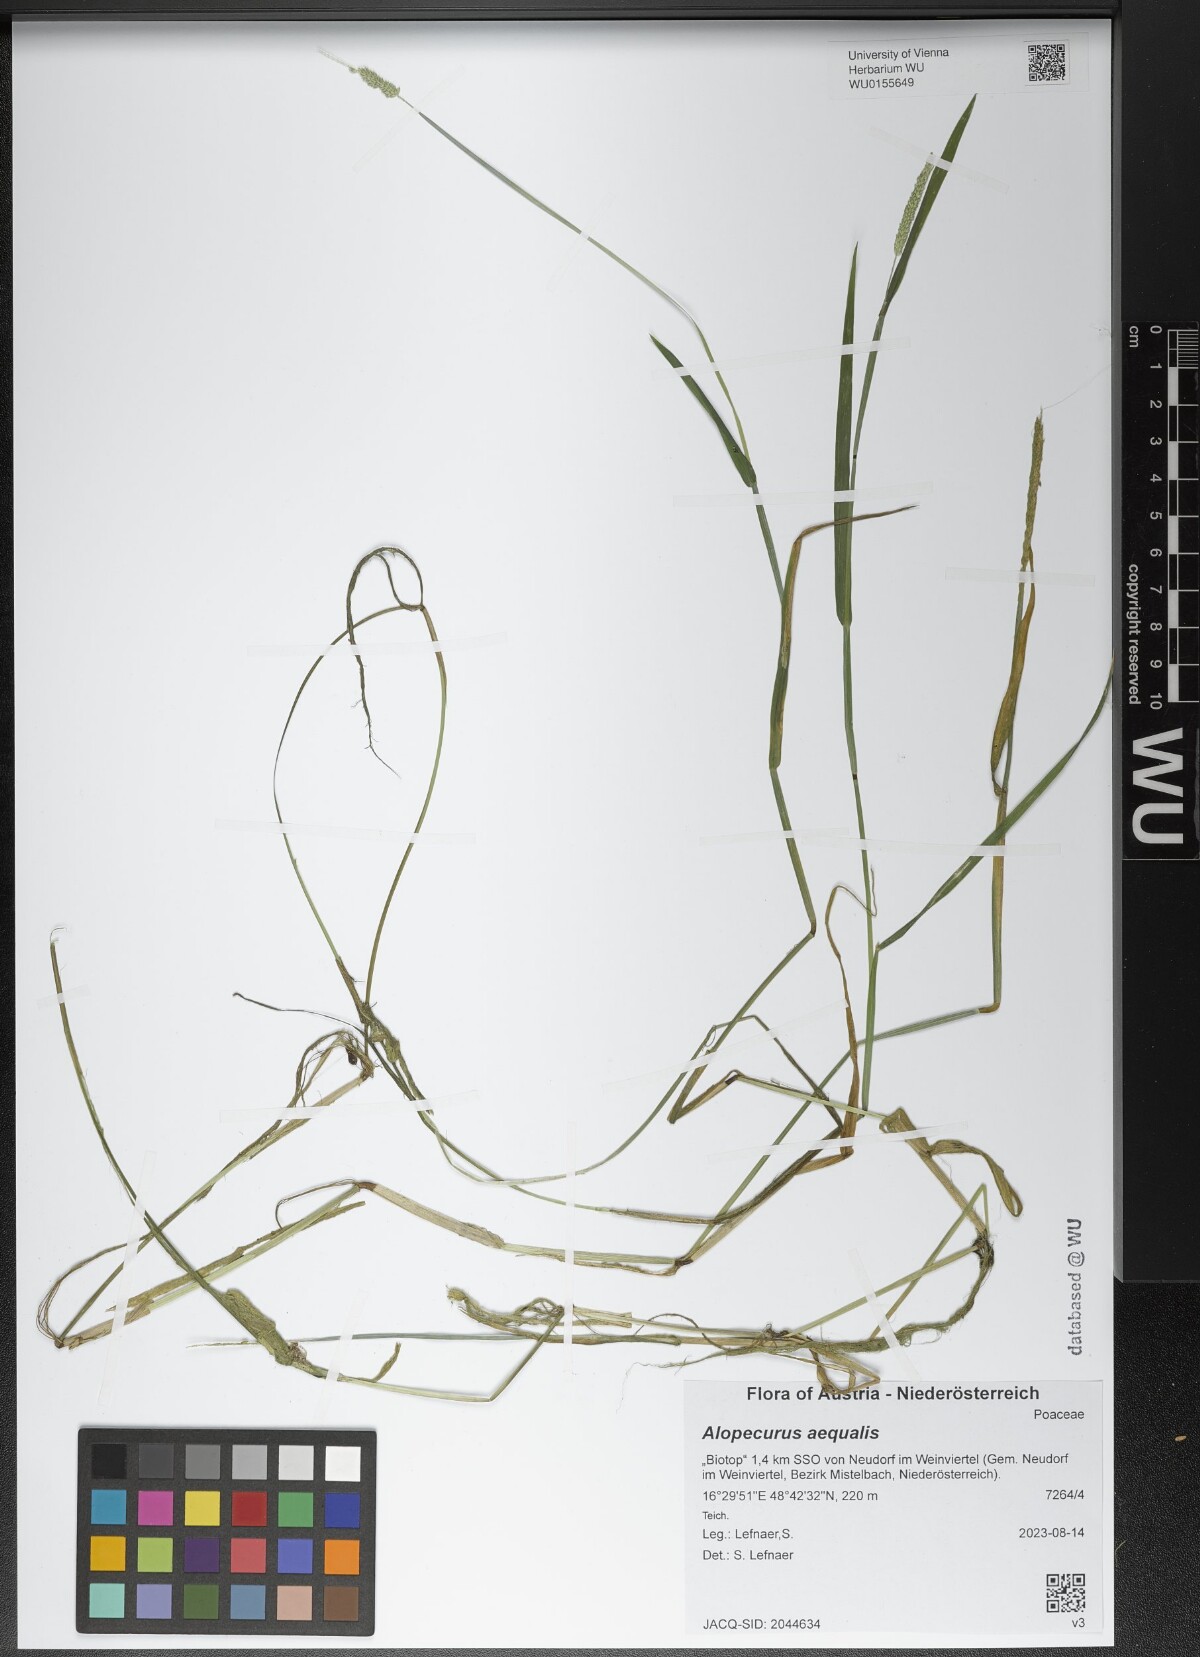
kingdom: Plantae
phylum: Tracheophyta
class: Liliopsida
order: Poales
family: Poaceae
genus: Alopecurus
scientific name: Alopecurus aequalis
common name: Orange foxtail
